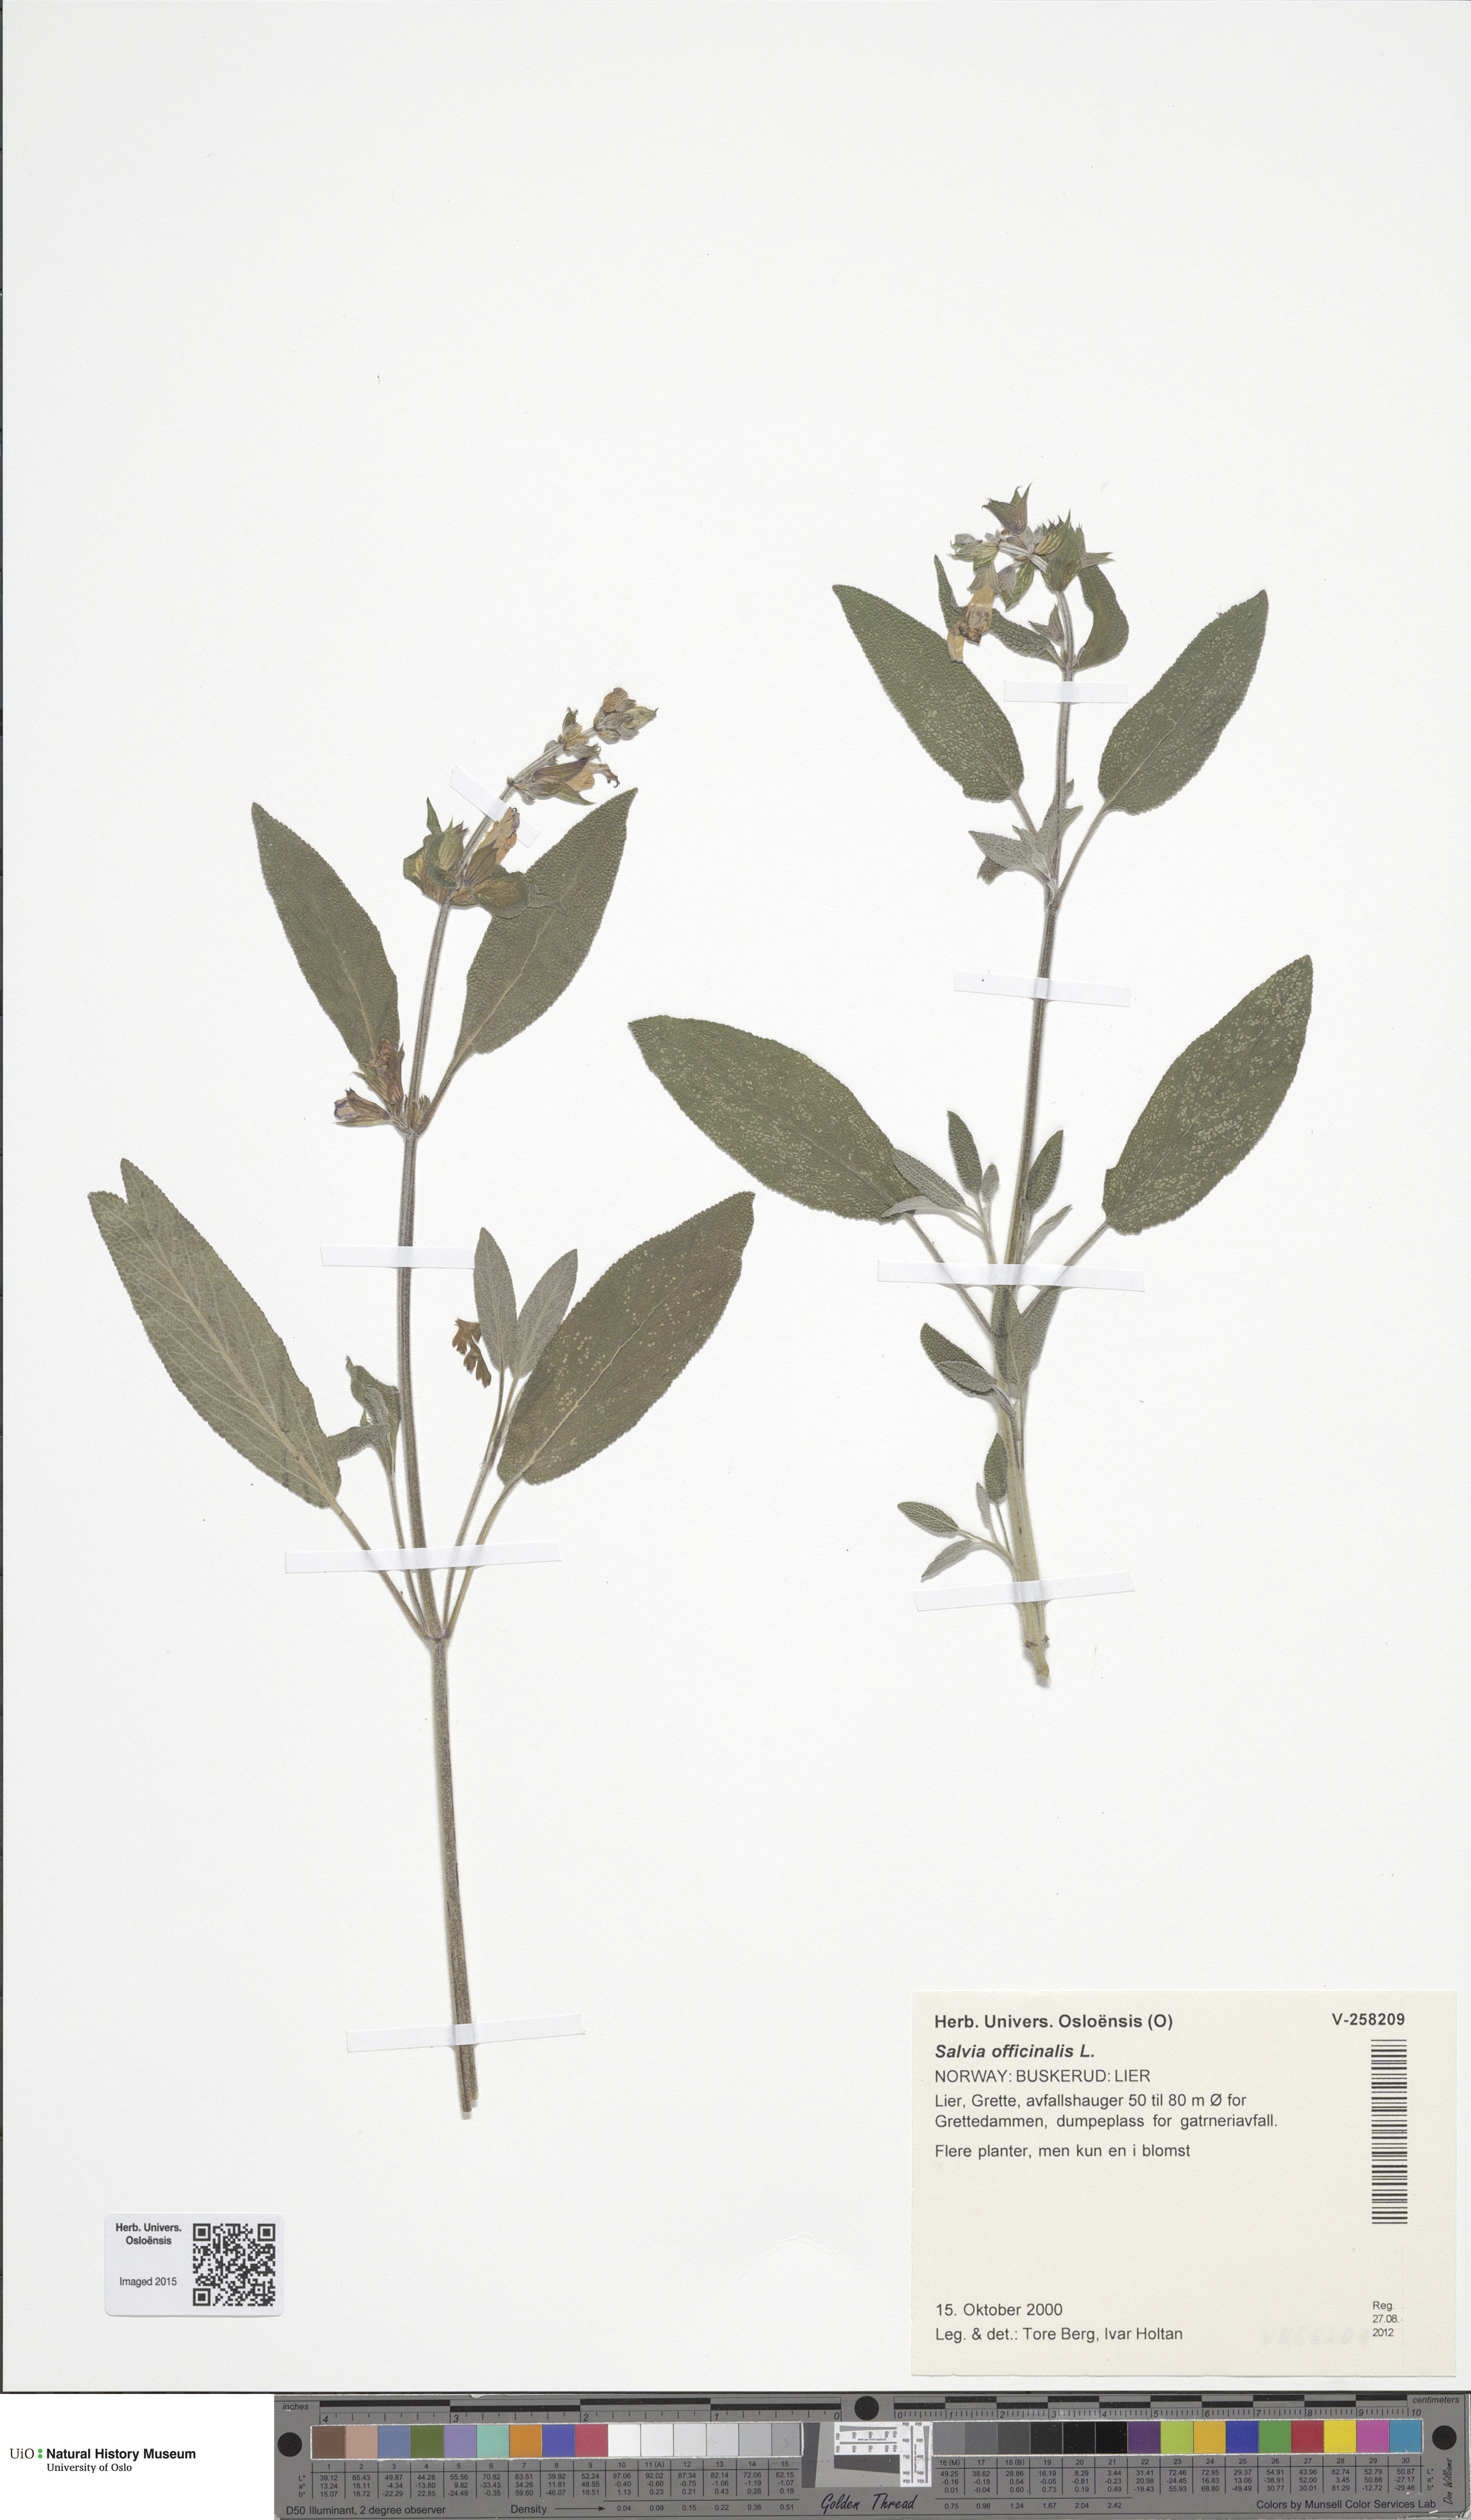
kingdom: Plantae
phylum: Tracheophyta
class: Magnoliopsida
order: Lamiales
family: Lamiaceae
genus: Salvia
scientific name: Salvia officinalis
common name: Sage
